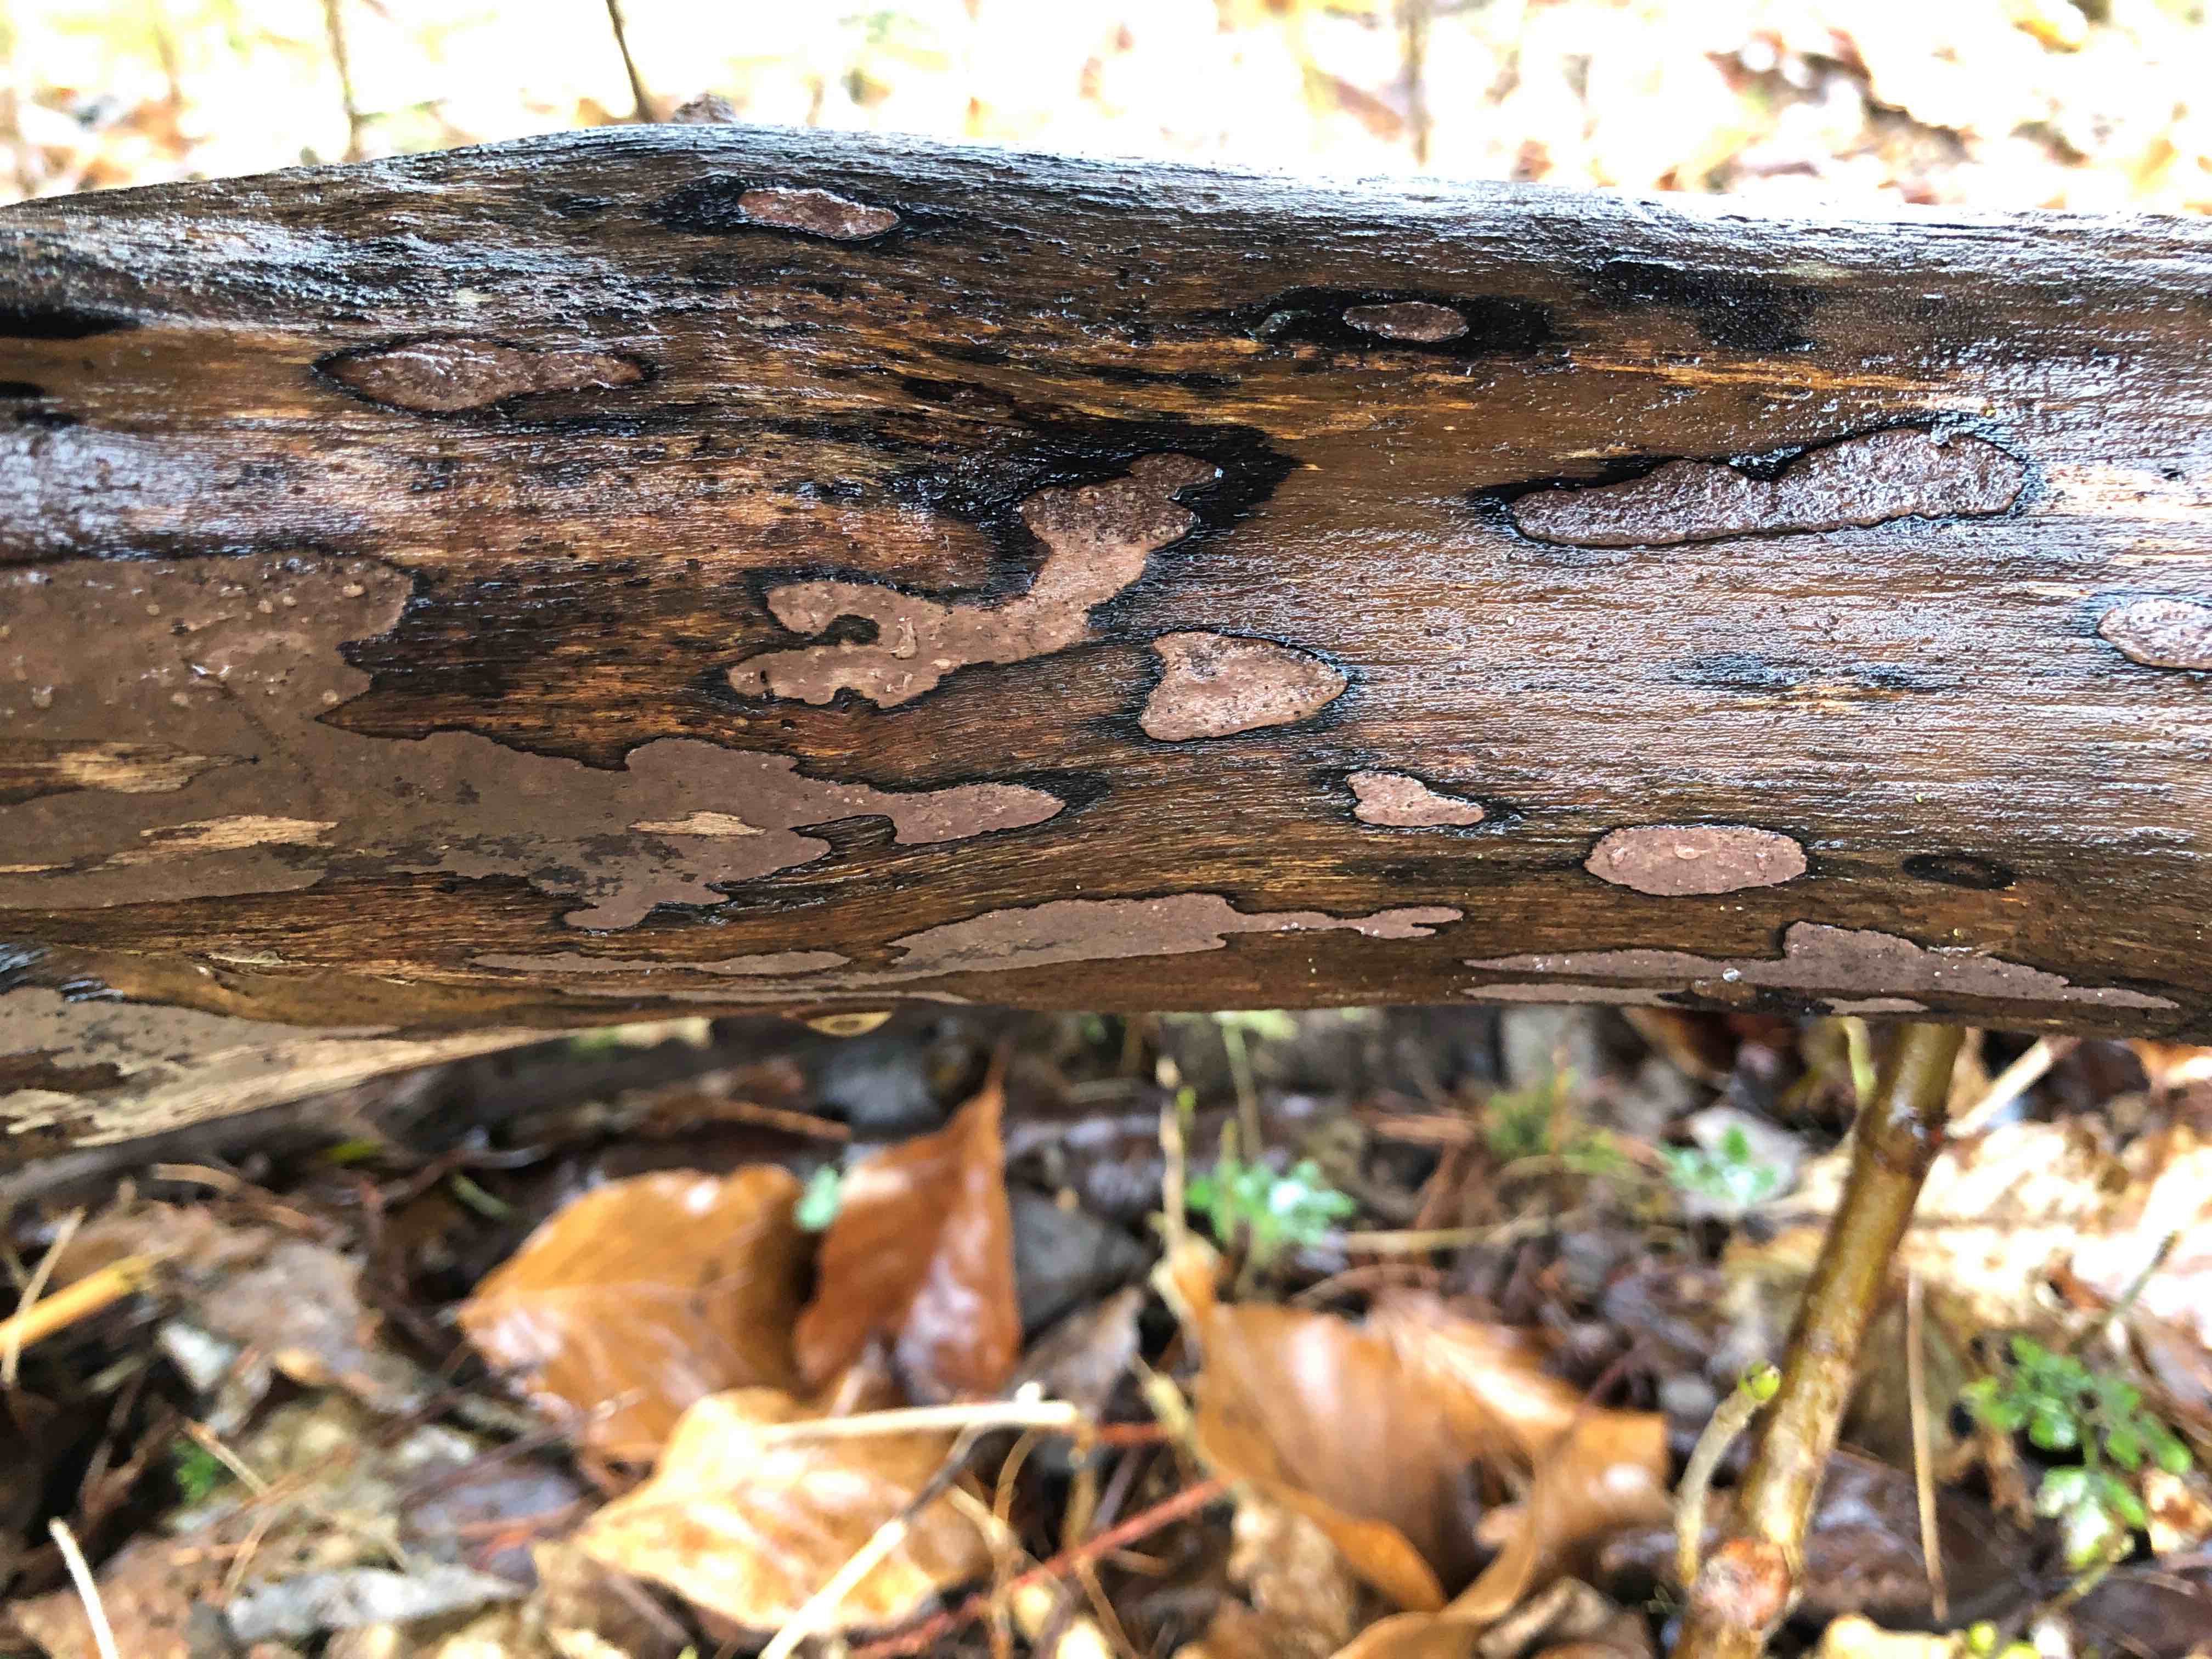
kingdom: Fungi
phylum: Ascomycota
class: Sordariomycetes
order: Xylariales
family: Hypoxylaceae
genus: Hypoxylon
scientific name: Hypoxylon petriniae
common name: nedsænket kulbær
